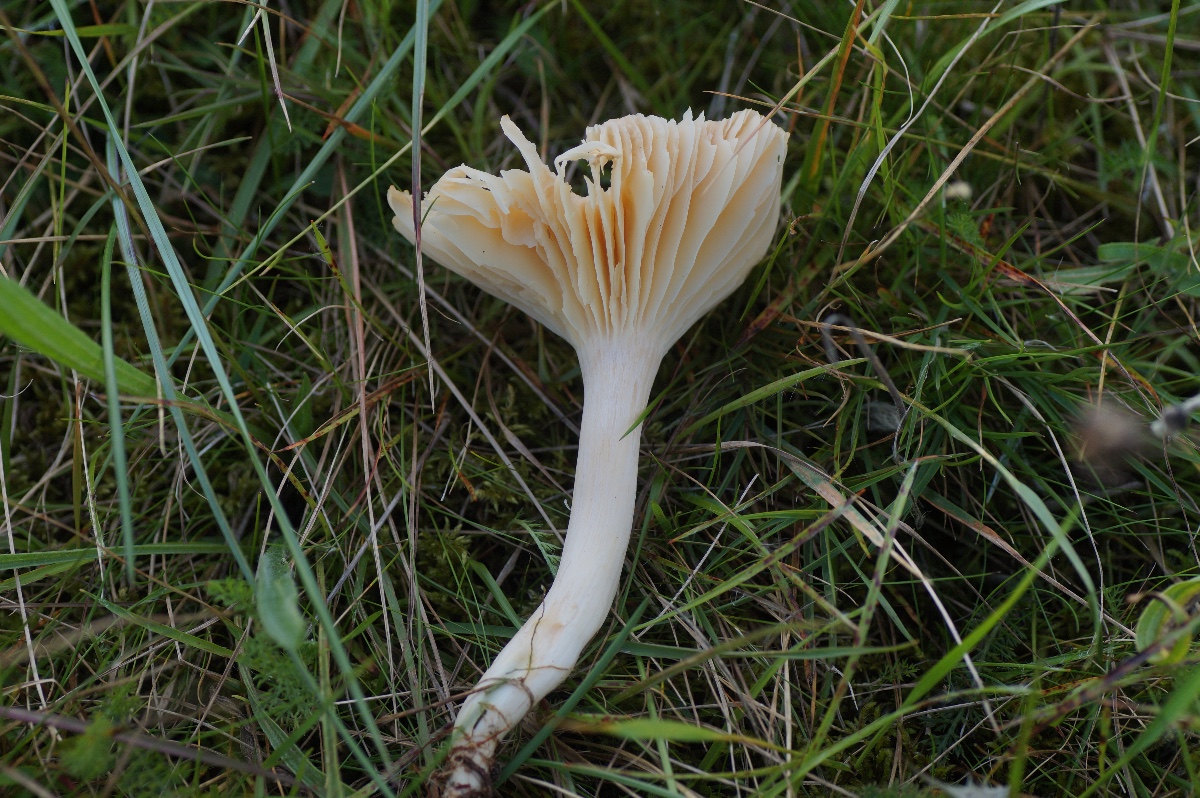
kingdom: Fungi
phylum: Basidiomycota
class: Agaricomycetes
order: Agaricales
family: Hygrophoraceae
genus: Cuphophyllus
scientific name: Cuphophyllus pratensis
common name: eng-vokshat
